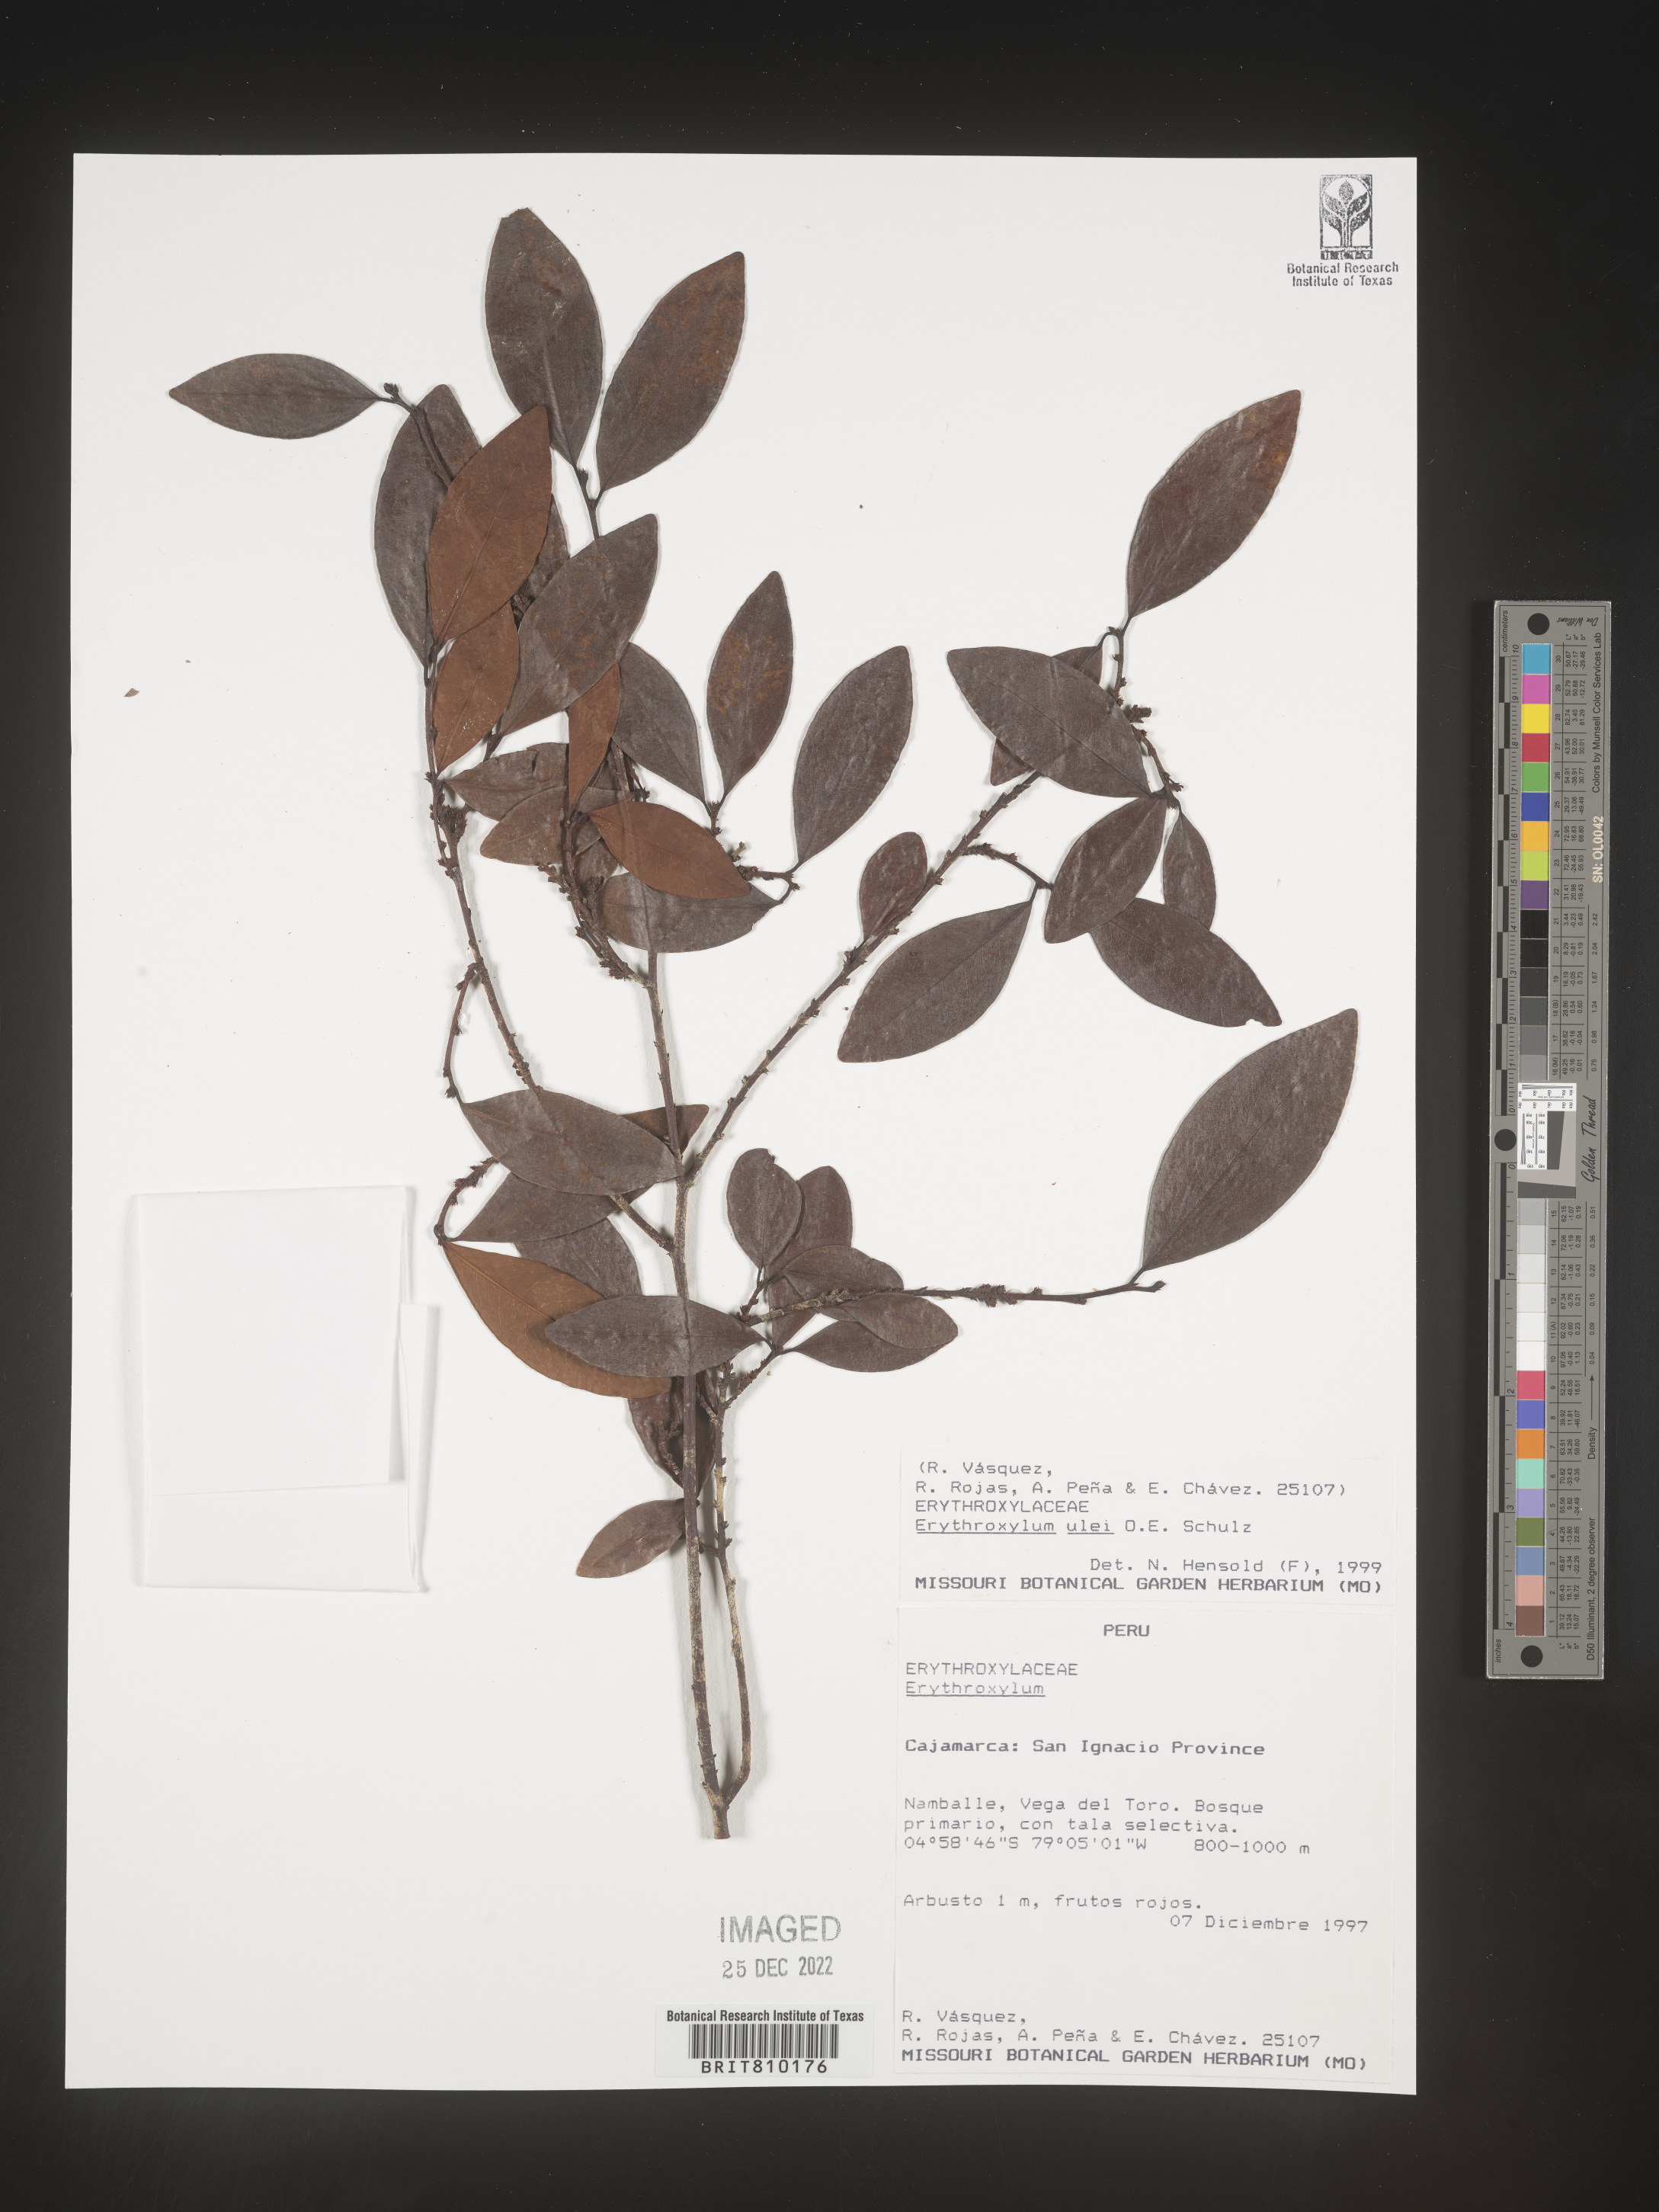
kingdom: Plantae
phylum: Tracheophyta
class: Magnoliopsida
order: Malpighiales
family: Erythroxylaceae
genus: Erythroxylum
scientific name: Erythroxylum
